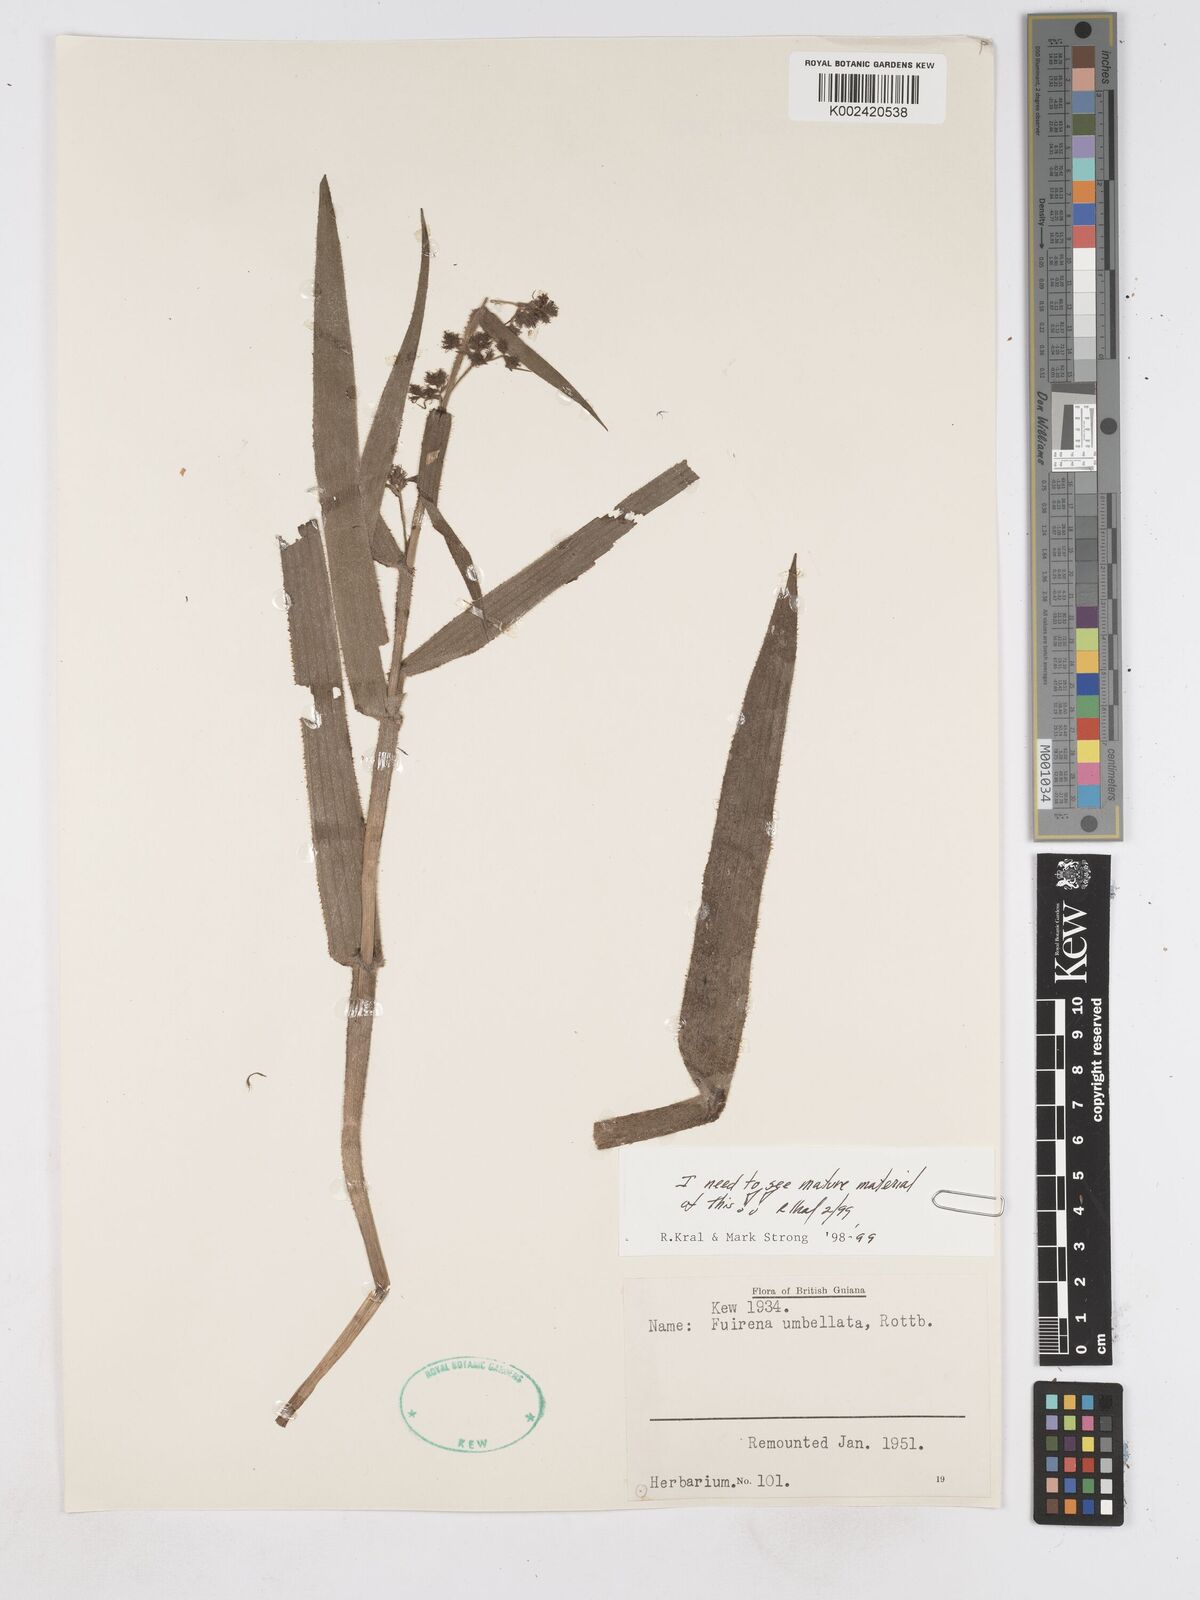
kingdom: Plantae
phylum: Tracheophyta
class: Liliopsida
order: Poales
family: Cyperaceae
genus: Fuirena
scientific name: Fuirena umbellata
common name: Yefen
